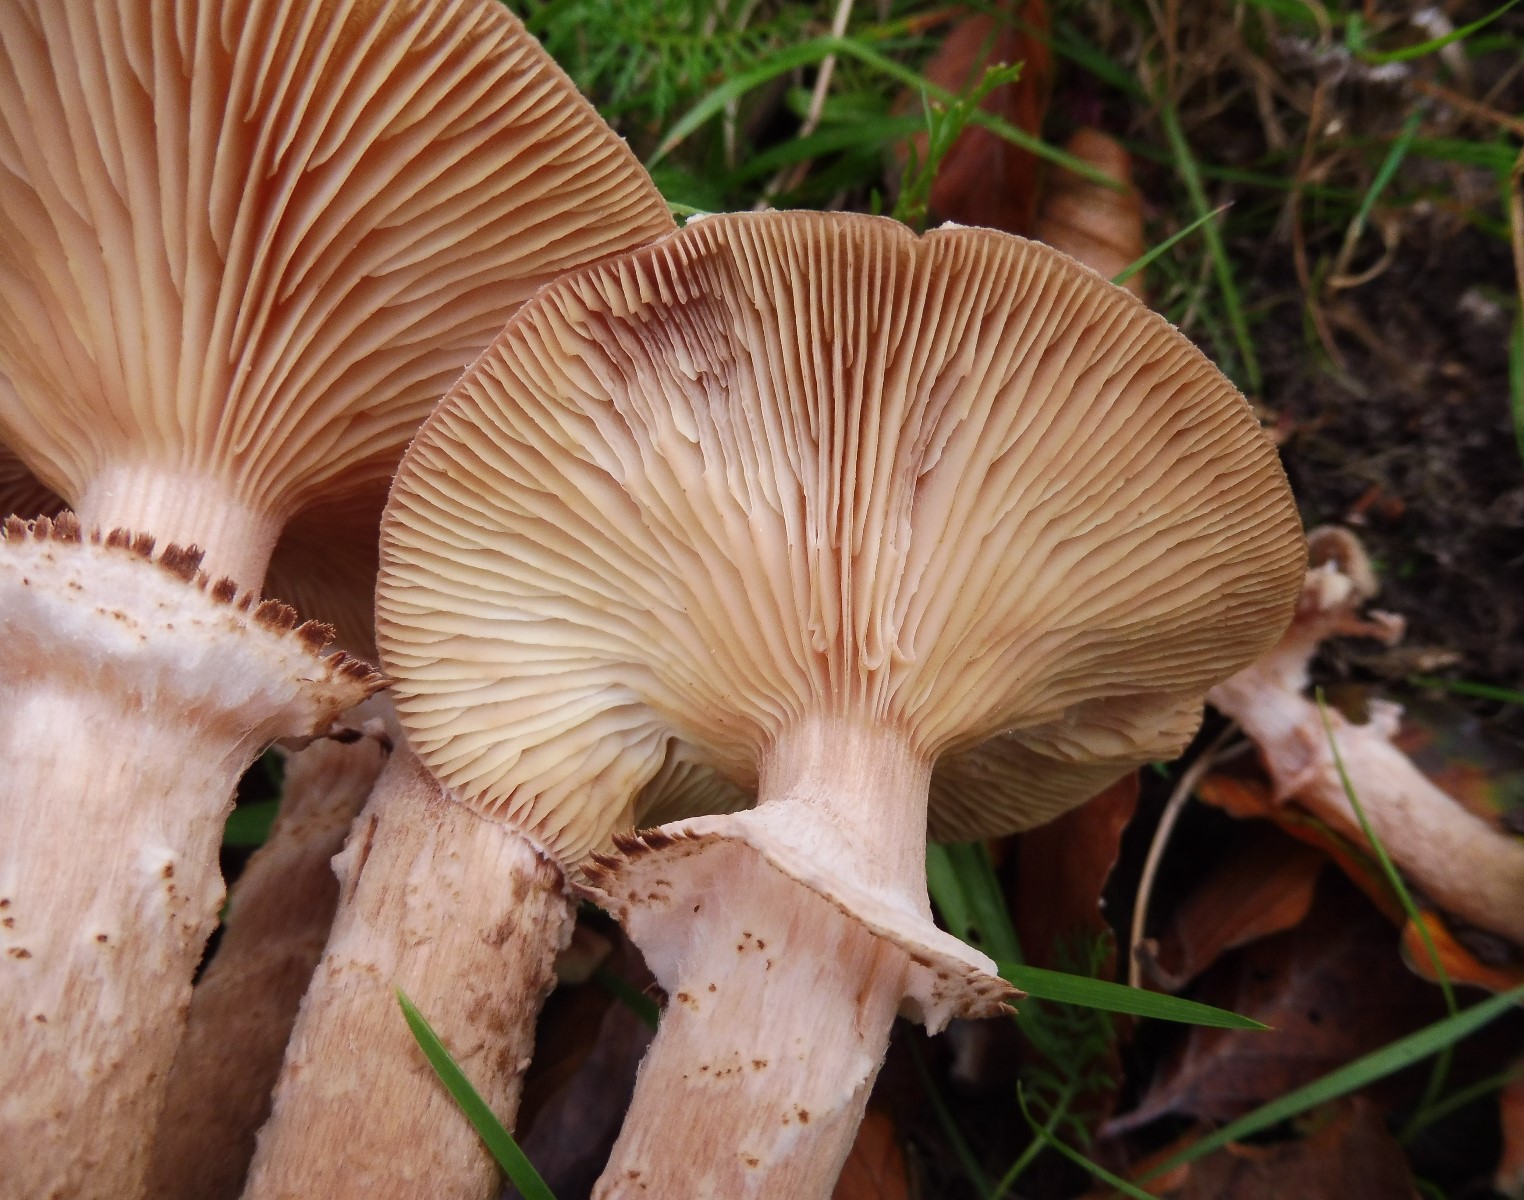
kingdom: Fungi
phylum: Basidiomycota
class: Agaricomycetes
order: Agaricales
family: Physalacriaceae
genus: Armillaria
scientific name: Armillaria ostoyae
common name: mørk honningsvamp
